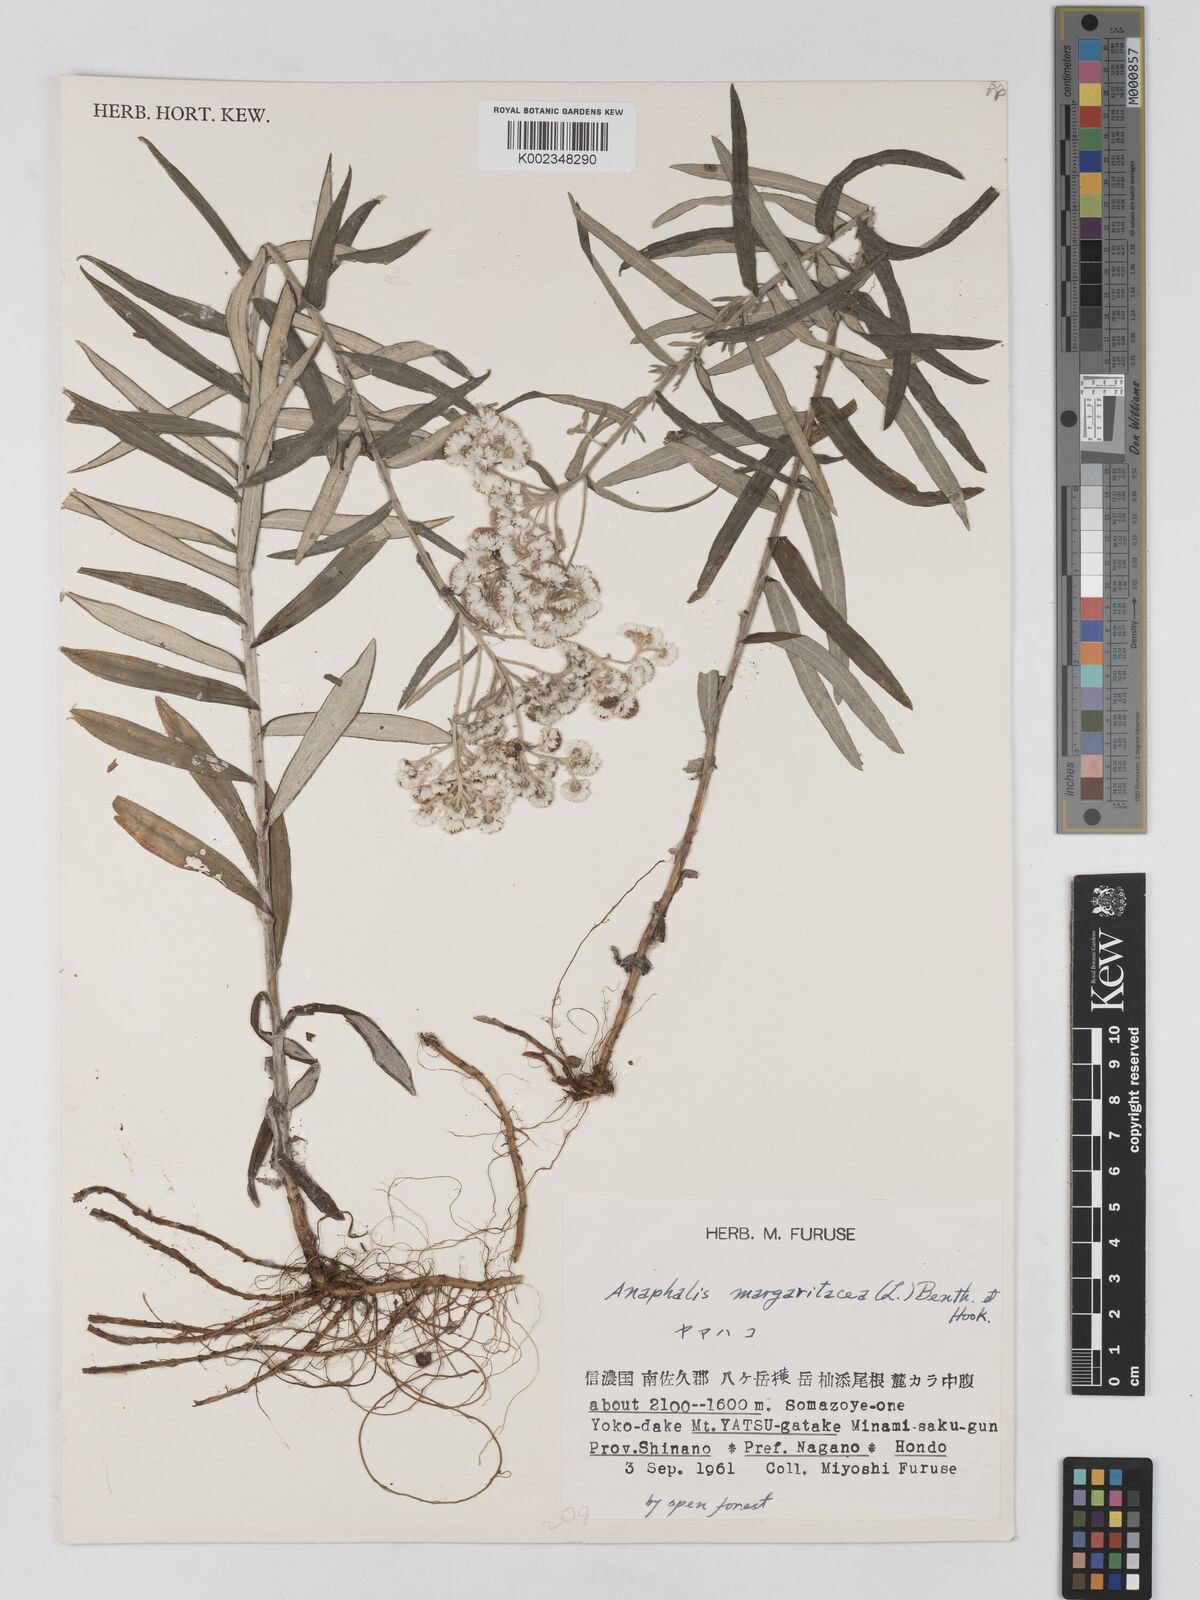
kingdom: Plantae
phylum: Tracheophyta
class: Magnoliopsida
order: Asterales
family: Asteraceae
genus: Anaphalis
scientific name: Anaphalis margaritacea
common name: Pearly everlasting
